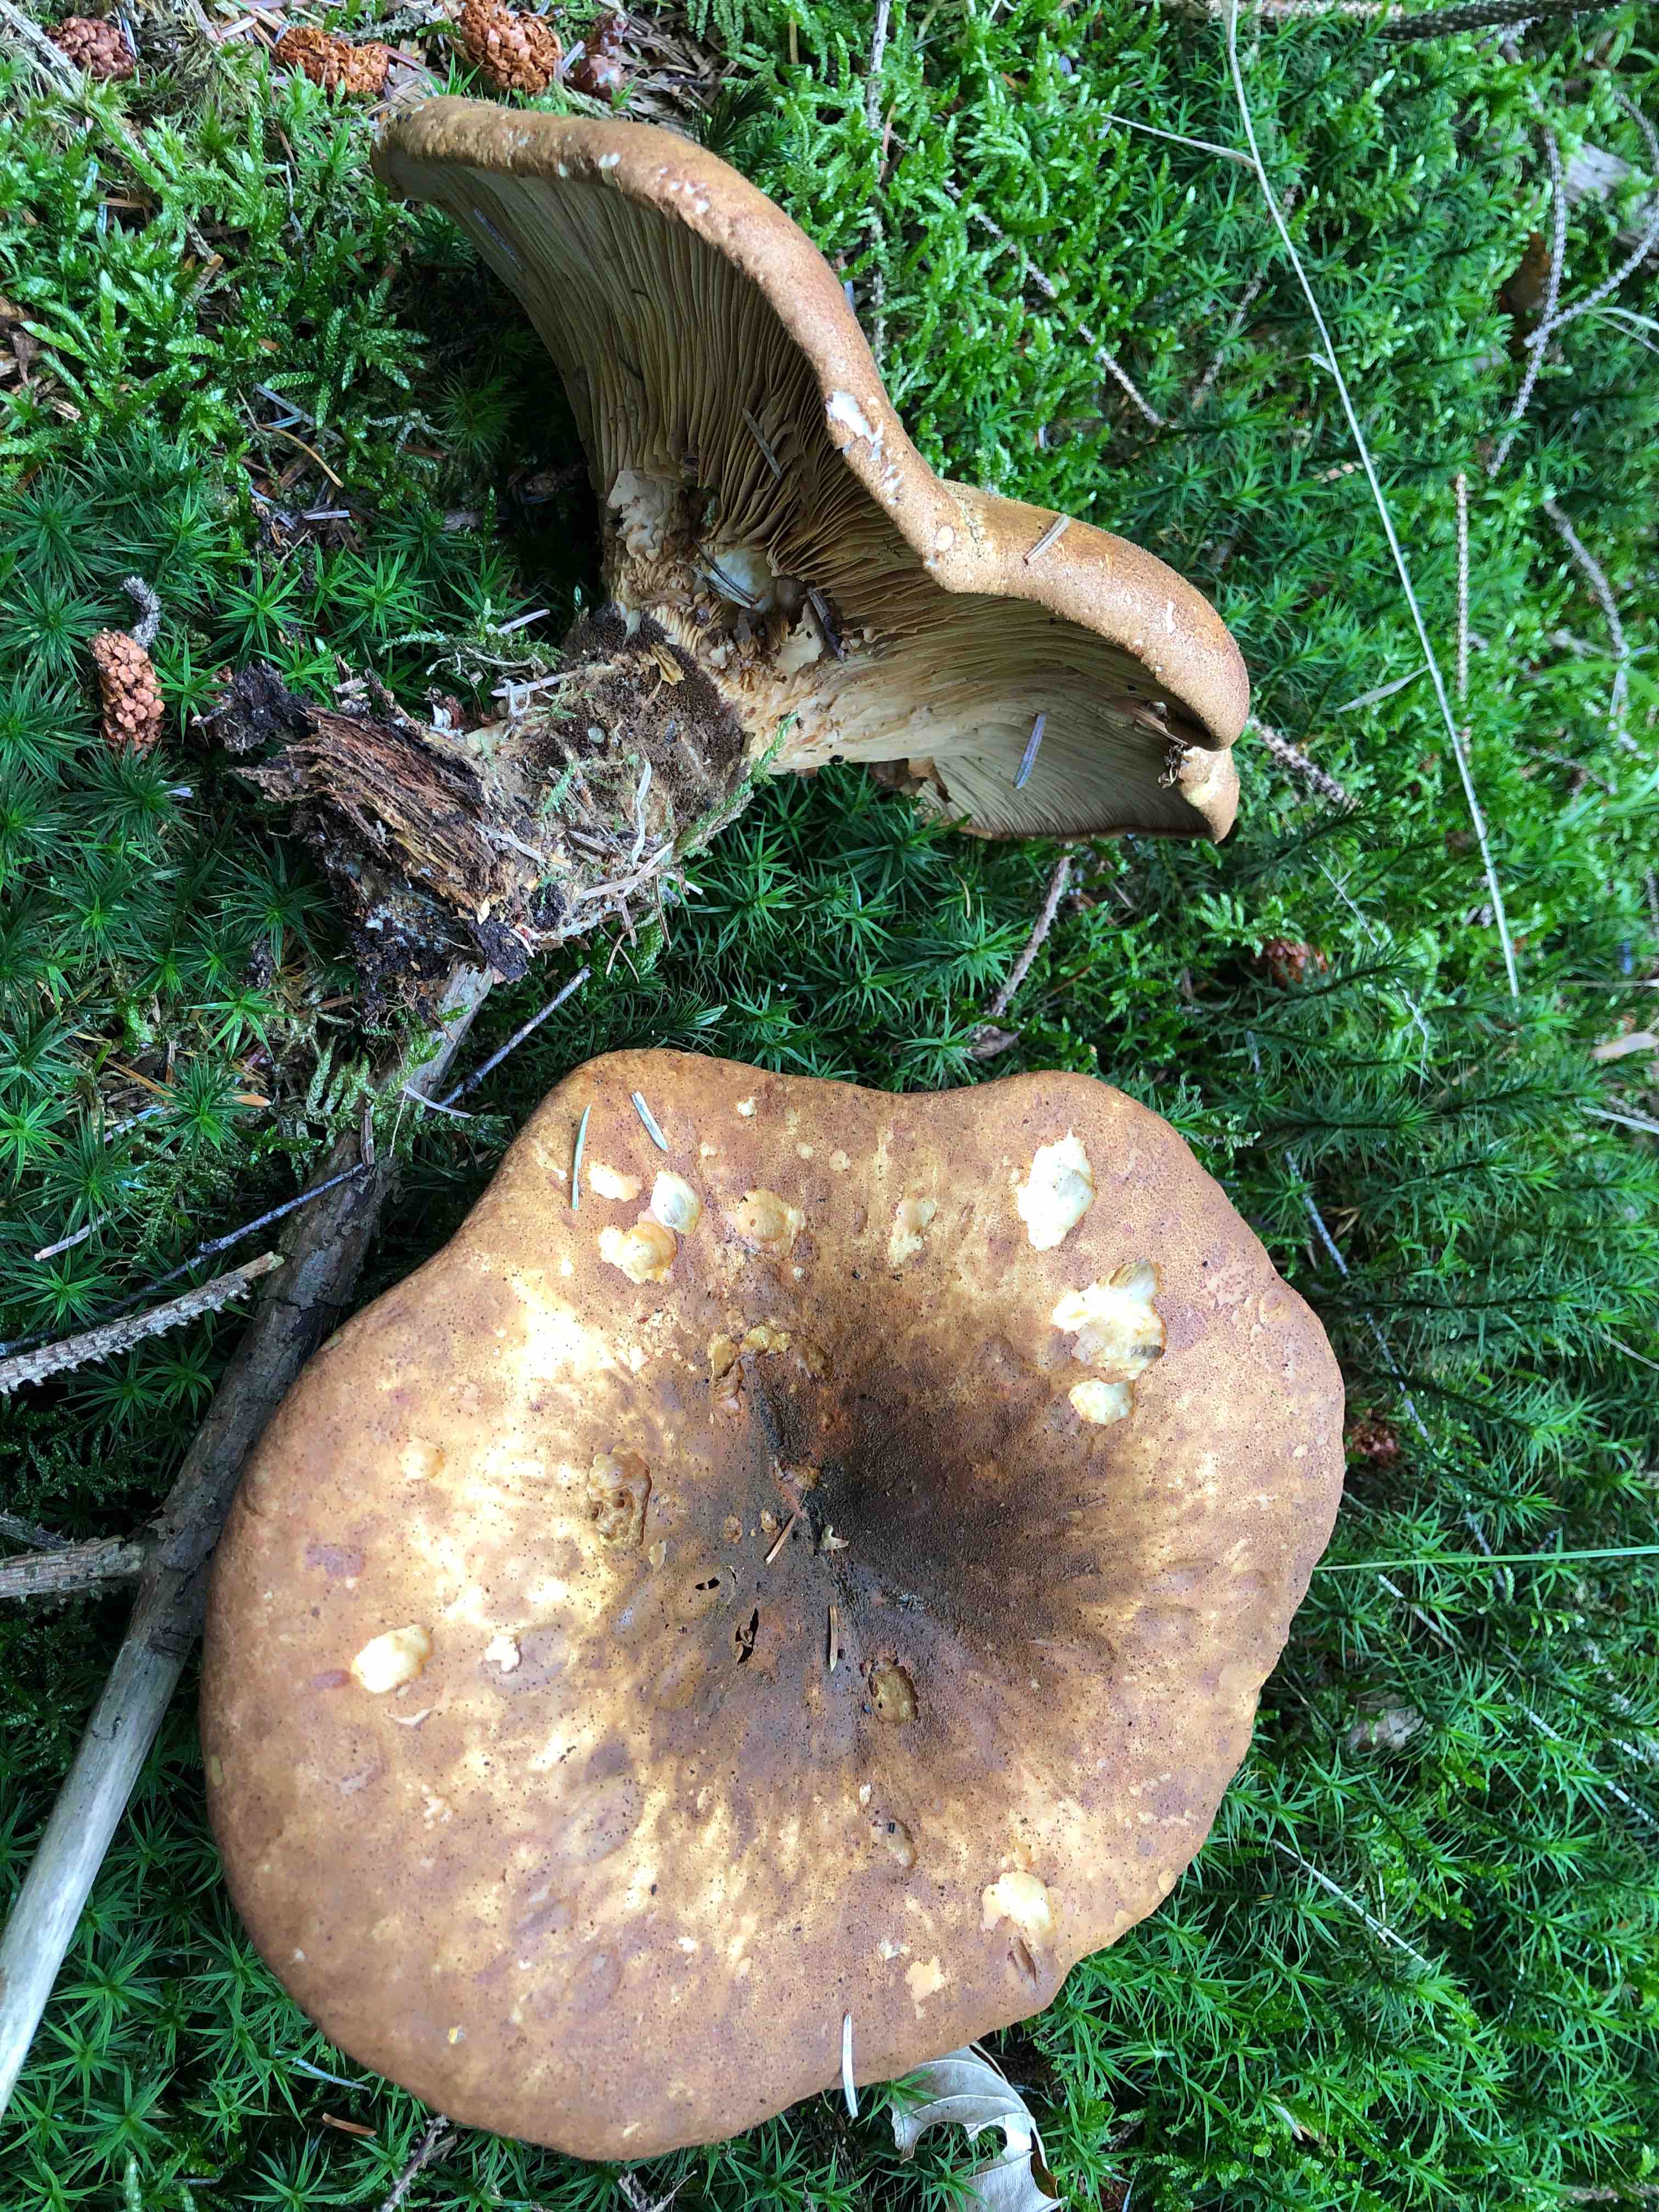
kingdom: Fungi
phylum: Basidiomycota
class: Agaricomycetes
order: Boletales
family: Tapinellaceae
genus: Tapinella
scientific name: Tapinella atrotomentosa
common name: sortfiltet viftesvamp
